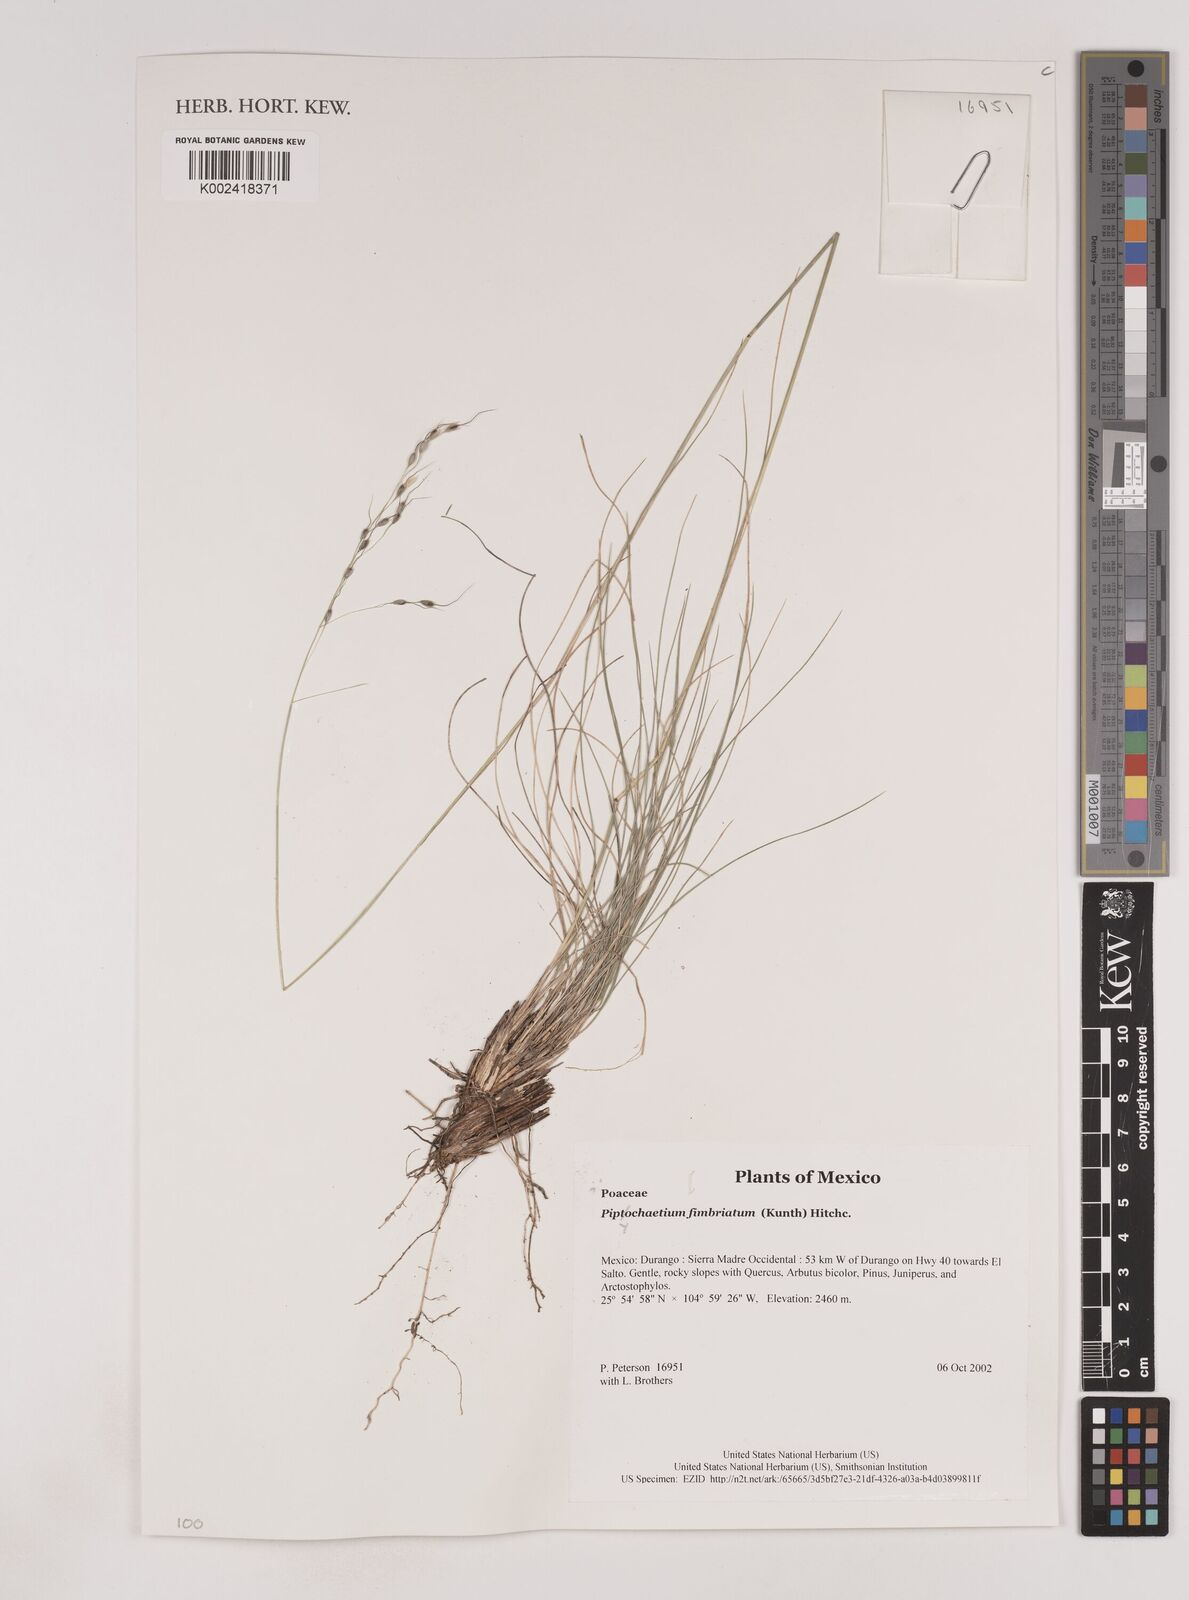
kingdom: Plantae
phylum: Tracheophyta
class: Liliopsida
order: Poales
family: Poaceae
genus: Piptochaetium
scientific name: Piptochaetium fimbriatum
